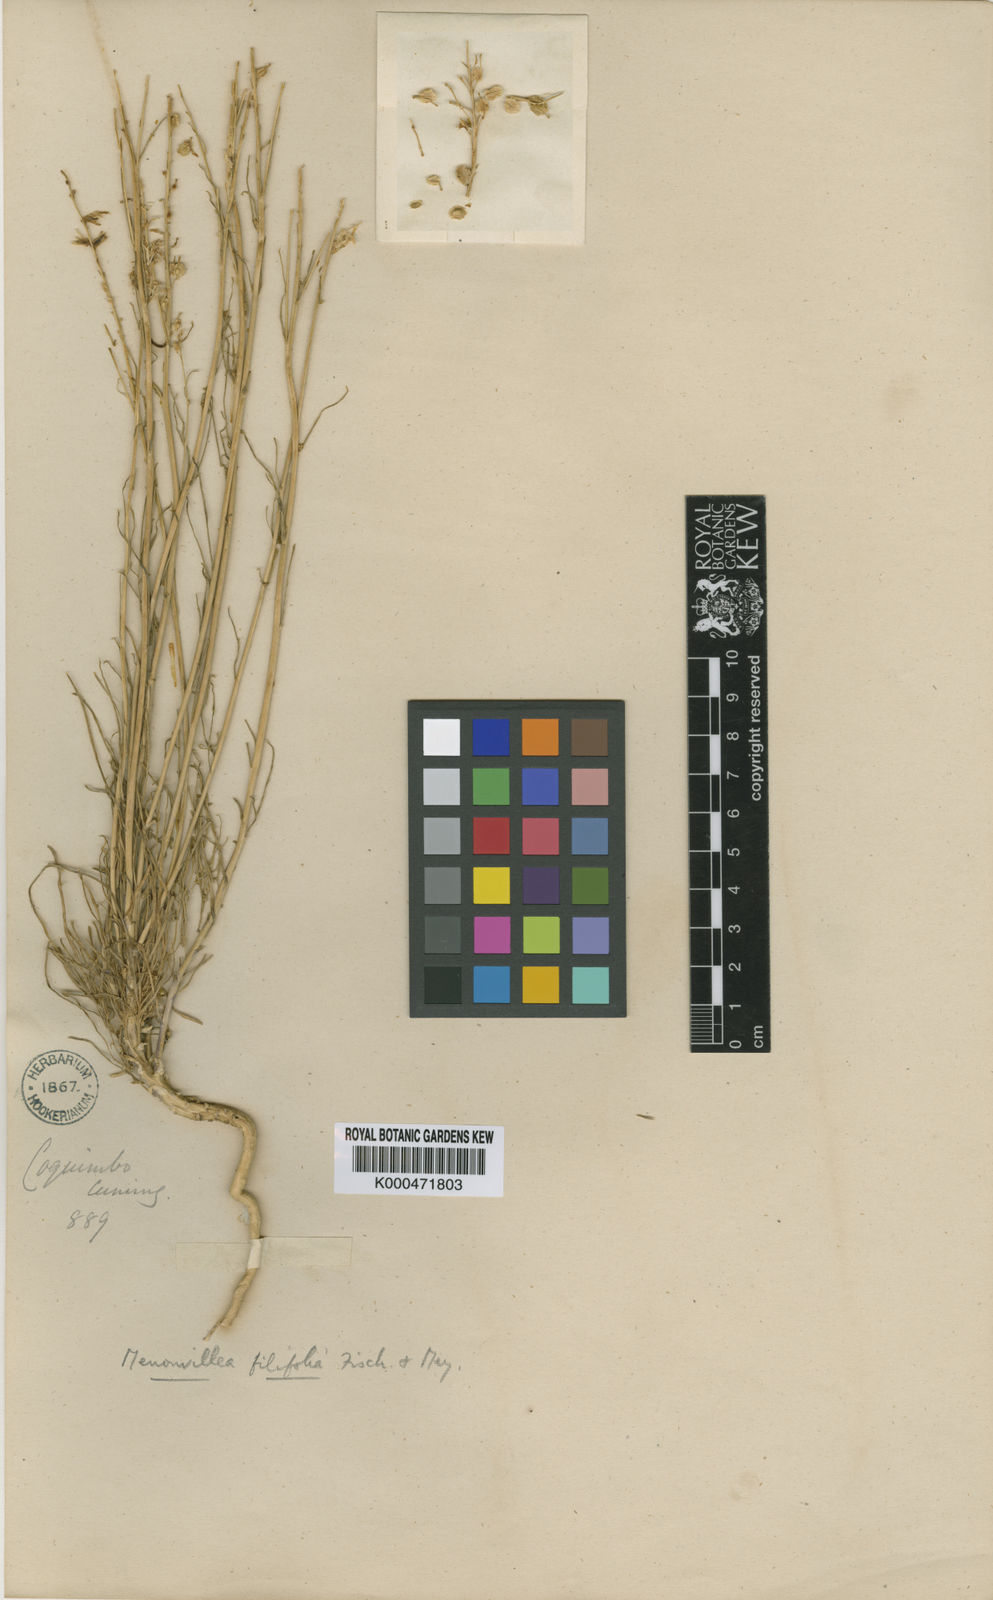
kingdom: Plantae
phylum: Tracheophyta
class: Magnoliopsida
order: Brassicales
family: Brassicaceae
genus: Menonvillea
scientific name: Menonvillea filifolia
